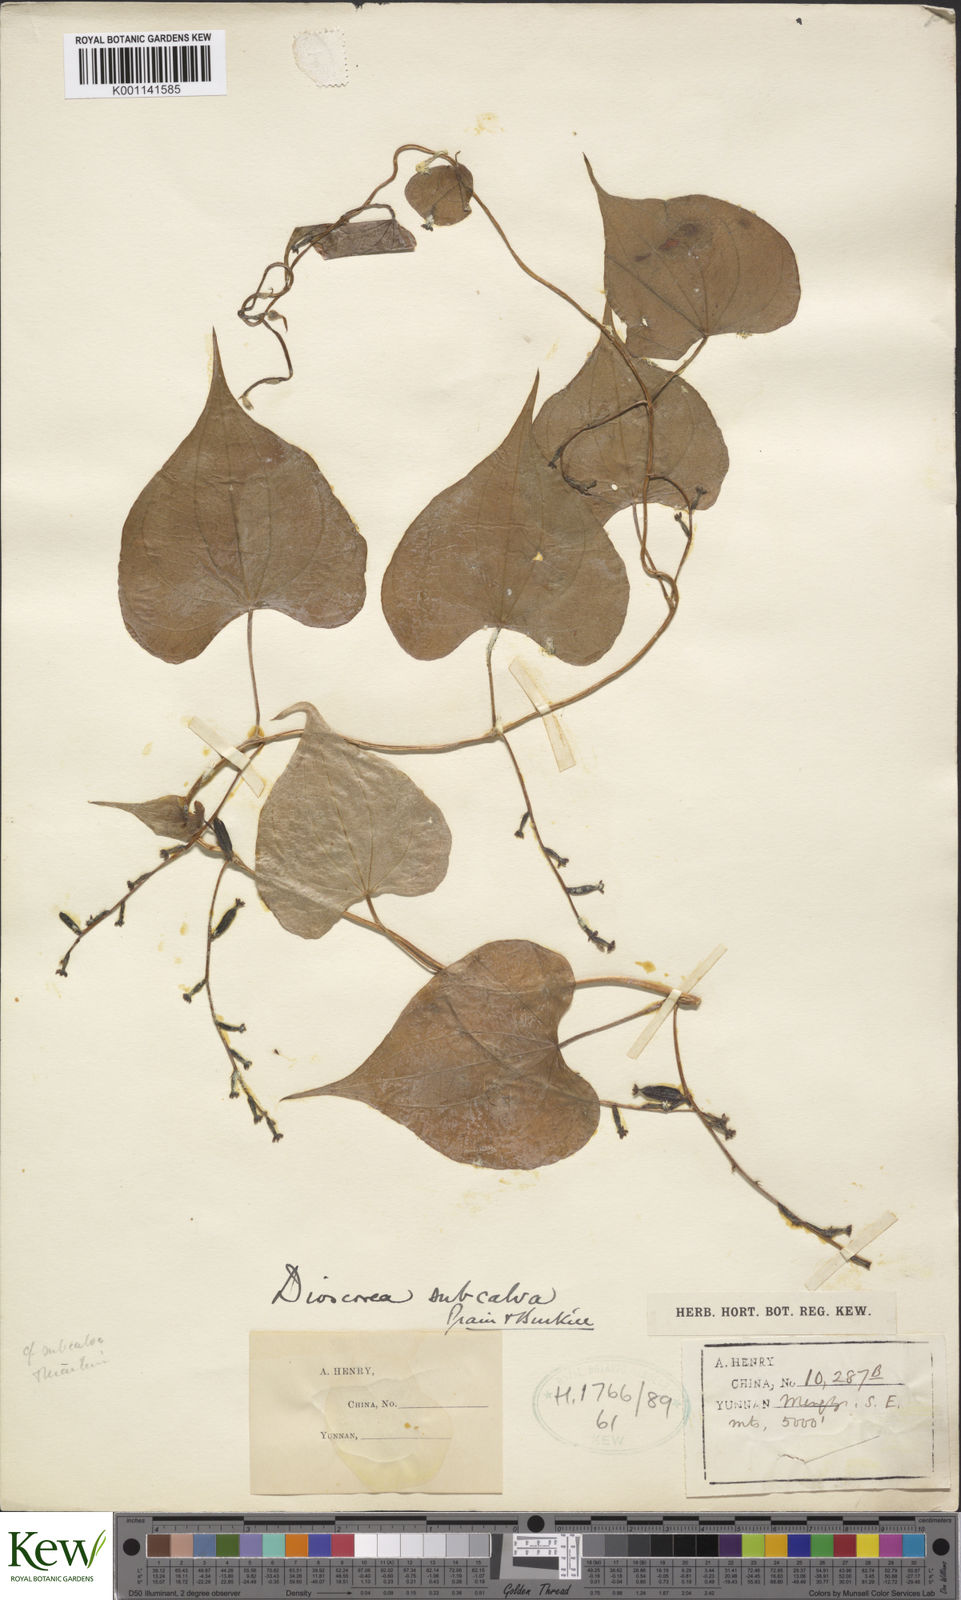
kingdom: Plantae
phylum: Tracheophyta
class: Liliopsida
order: Dioscoreales
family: Dioscoreaceae
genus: Dioscorea
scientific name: Dioscorea subcalva
